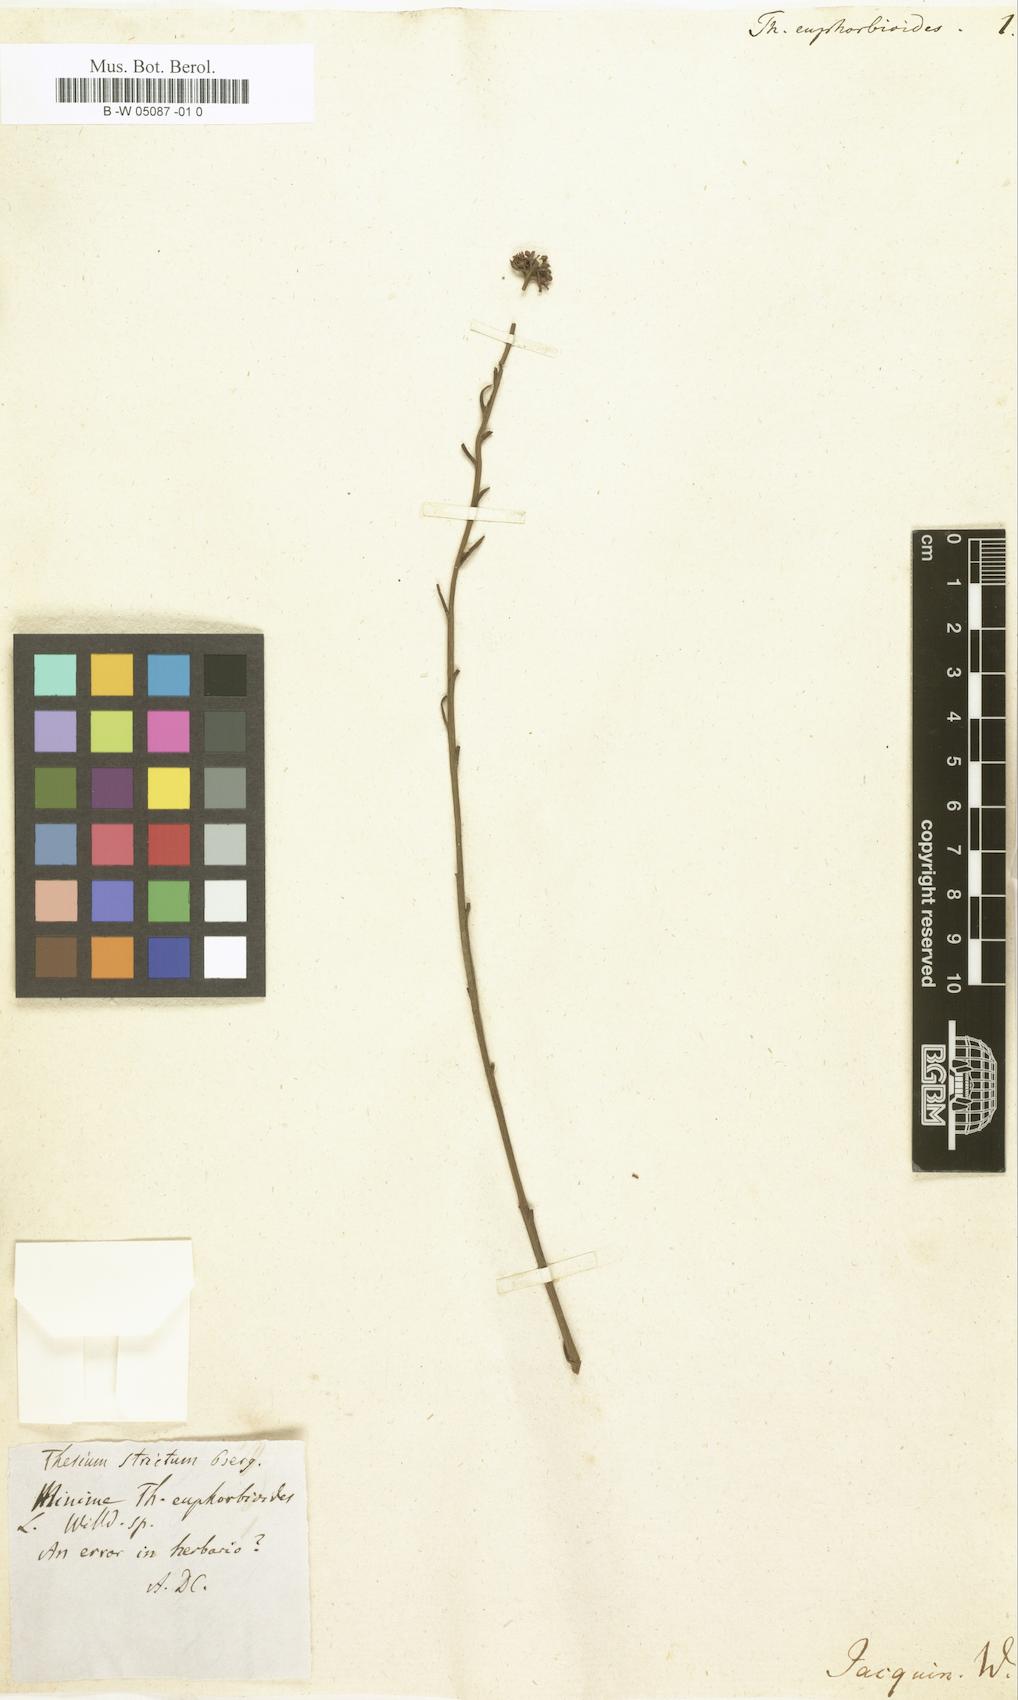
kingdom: Plantae
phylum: Tracheophyta
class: Magnoliopsida
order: Santalales
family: Thesiaceae
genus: Thesium
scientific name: Thesium euphorbioides
